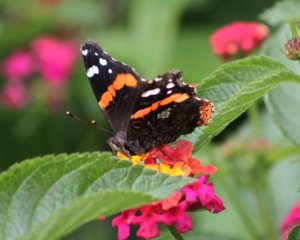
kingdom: Animalia
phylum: Arthropoda
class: Insecta
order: Lepidoptera
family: Nymphalidae
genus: Vanessa
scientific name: Vanessa atalanta
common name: Red Admiral
